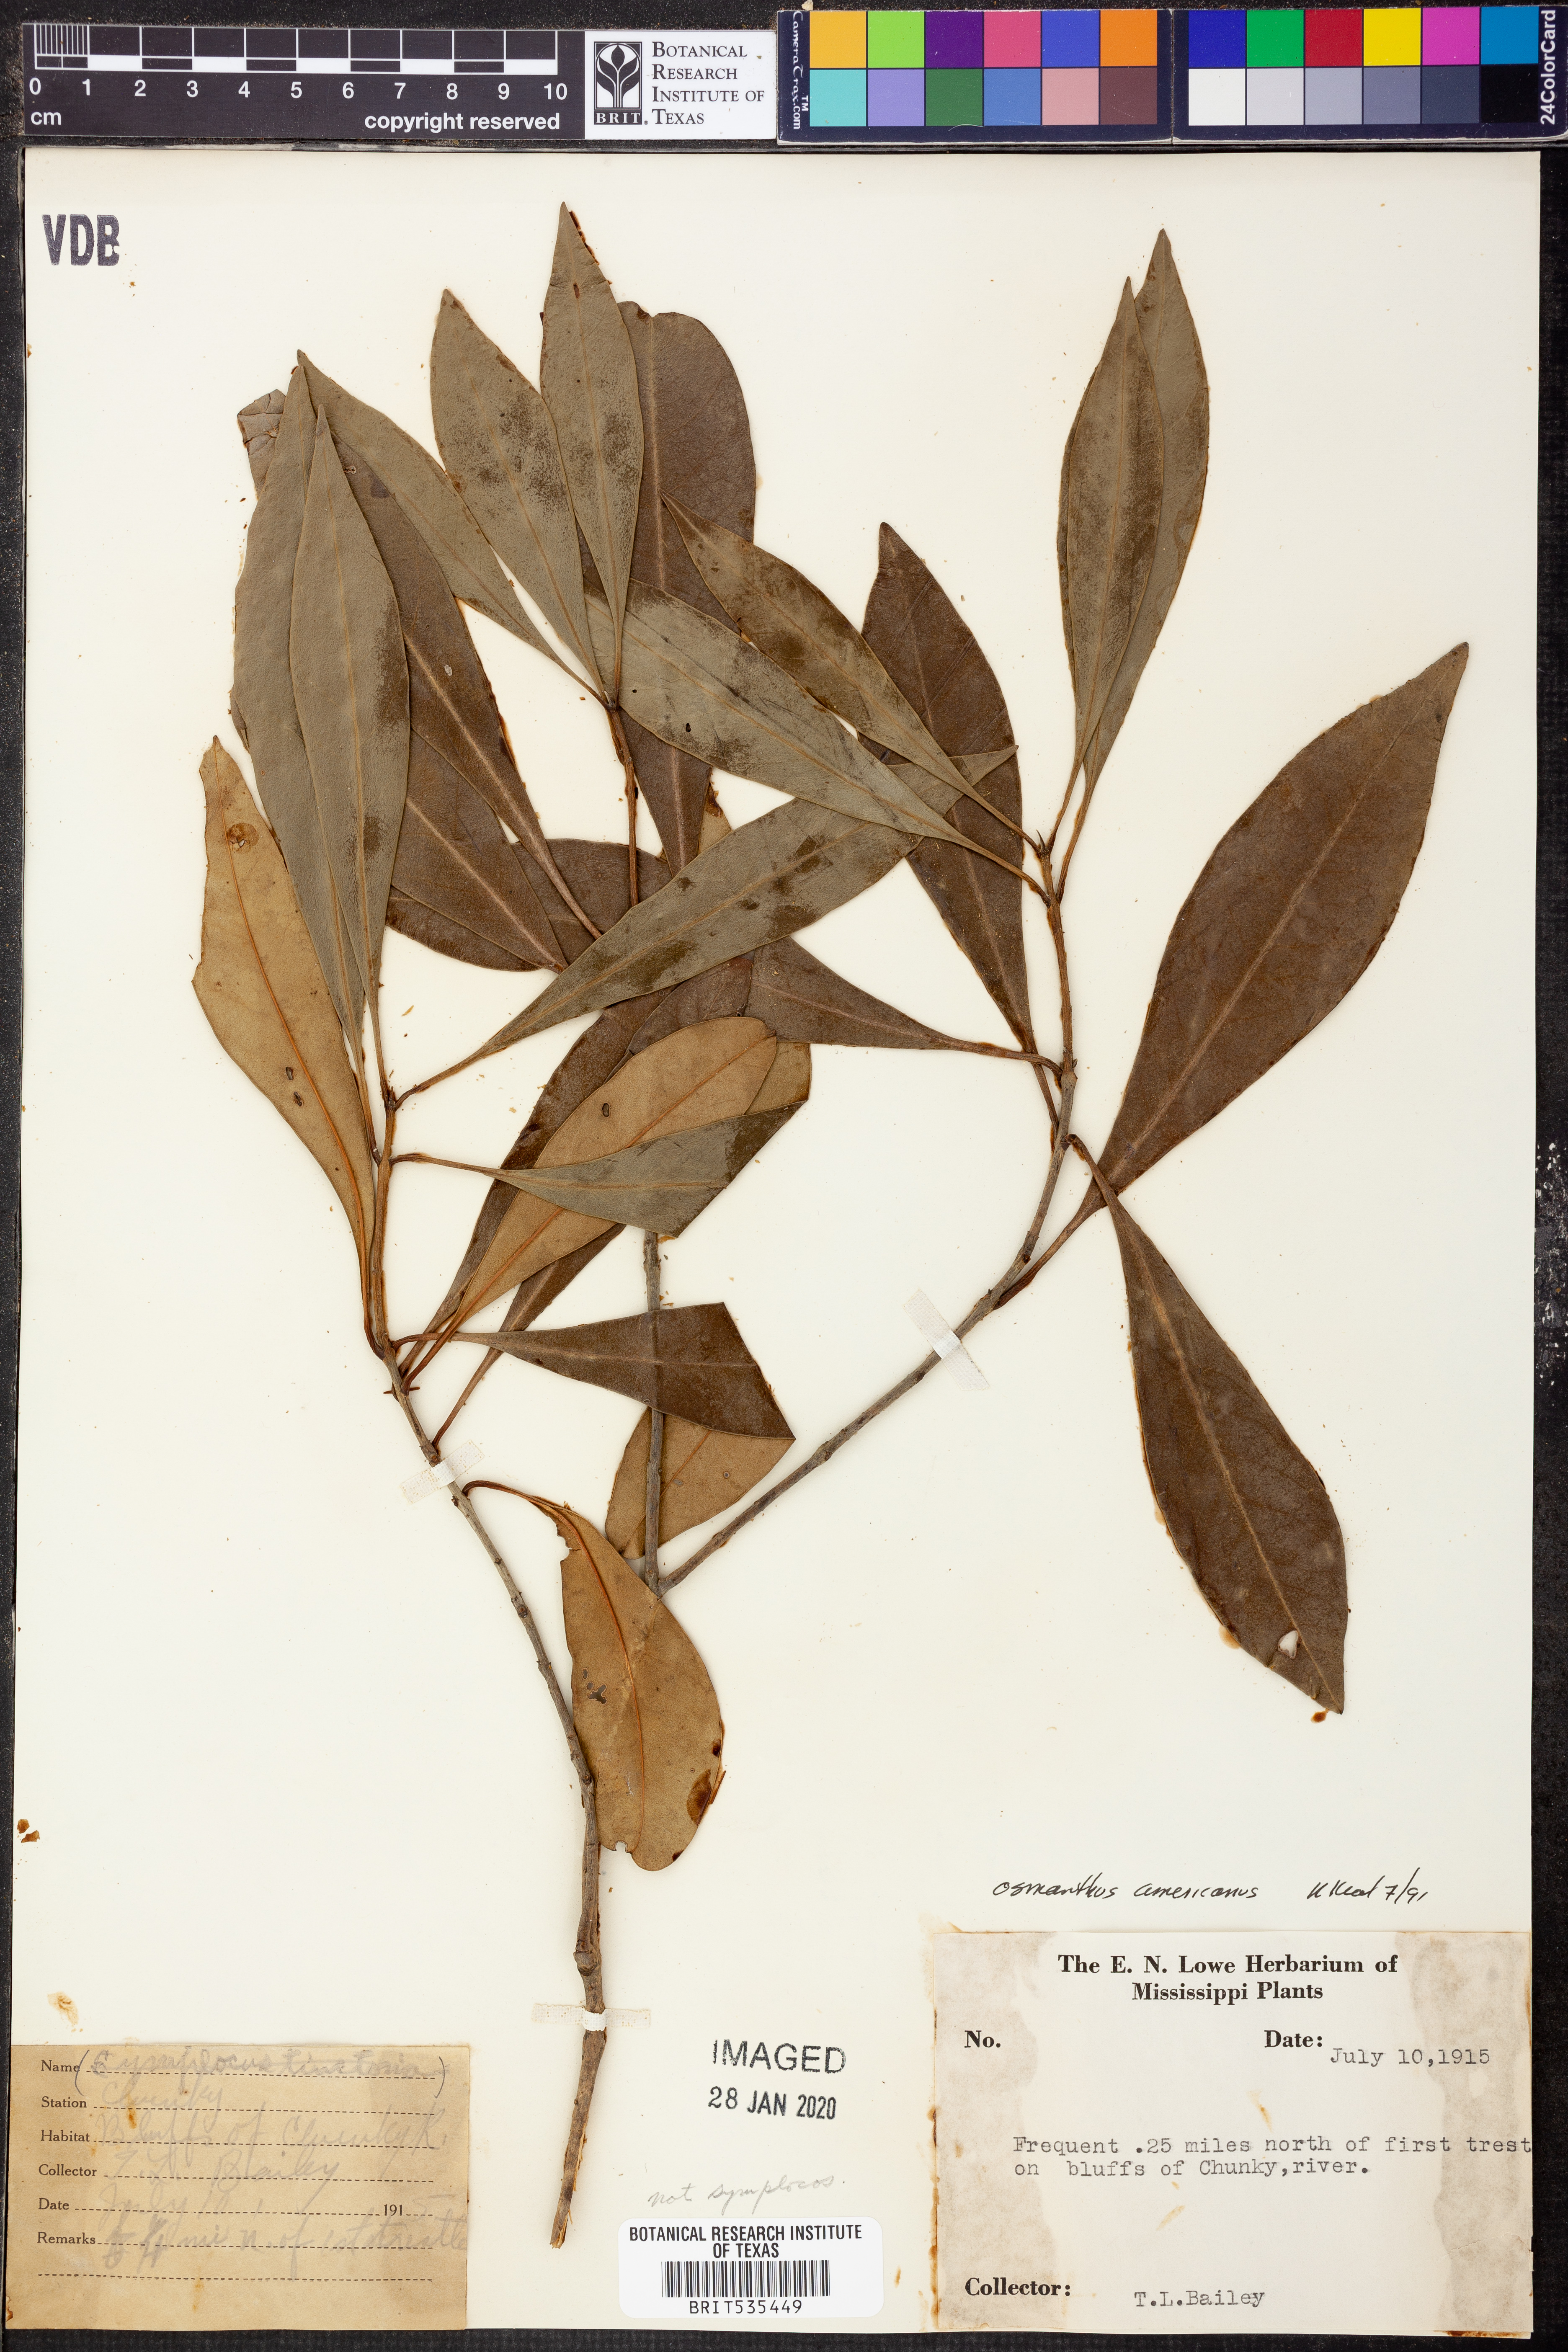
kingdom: Plantae
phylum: Tracheophyta
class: Magnoliopsida
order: Lamiales
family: Oleaceae
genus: Osmanthus
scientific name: Osmanthus americanus
